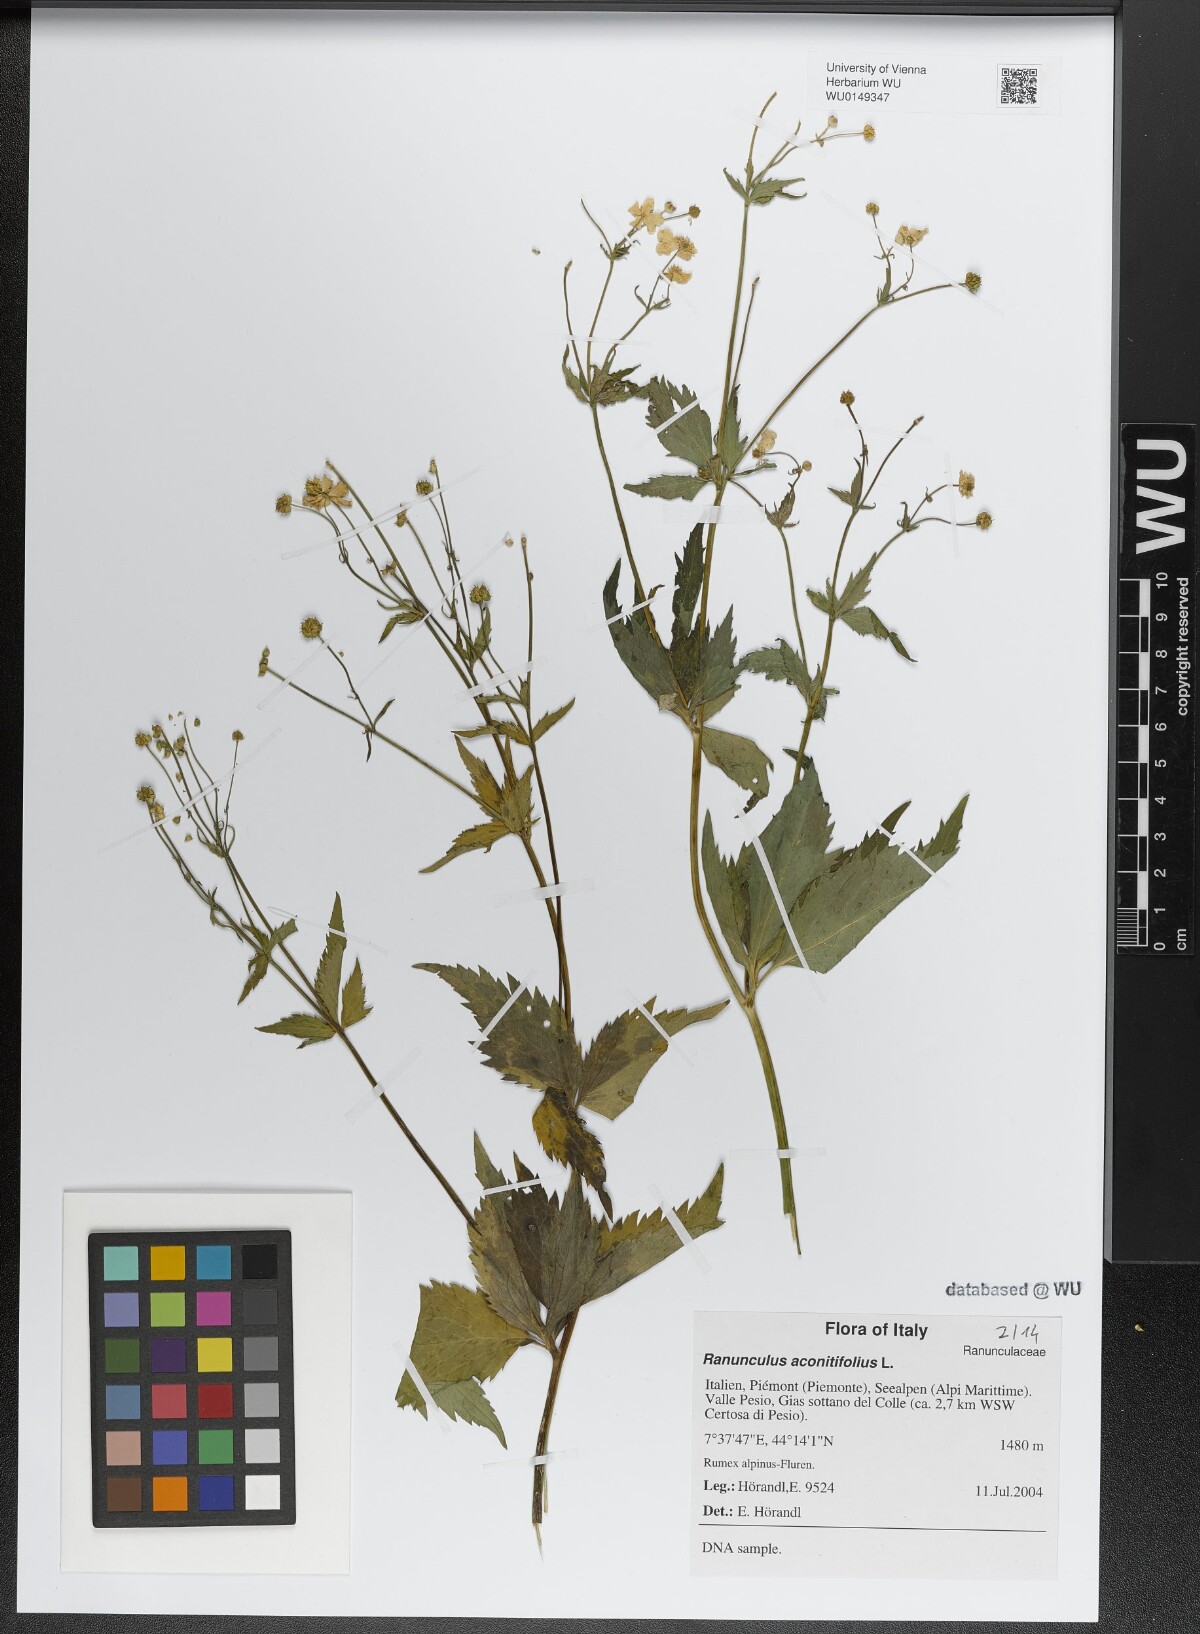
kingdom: Plantae
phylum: Tracheophyta
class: Magnoliopsida
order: Ranunculales
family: Ranunculaceae
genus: Ranunculus
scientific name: Ranunculus aconitifolius
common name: Aconite-leaved buttercup
